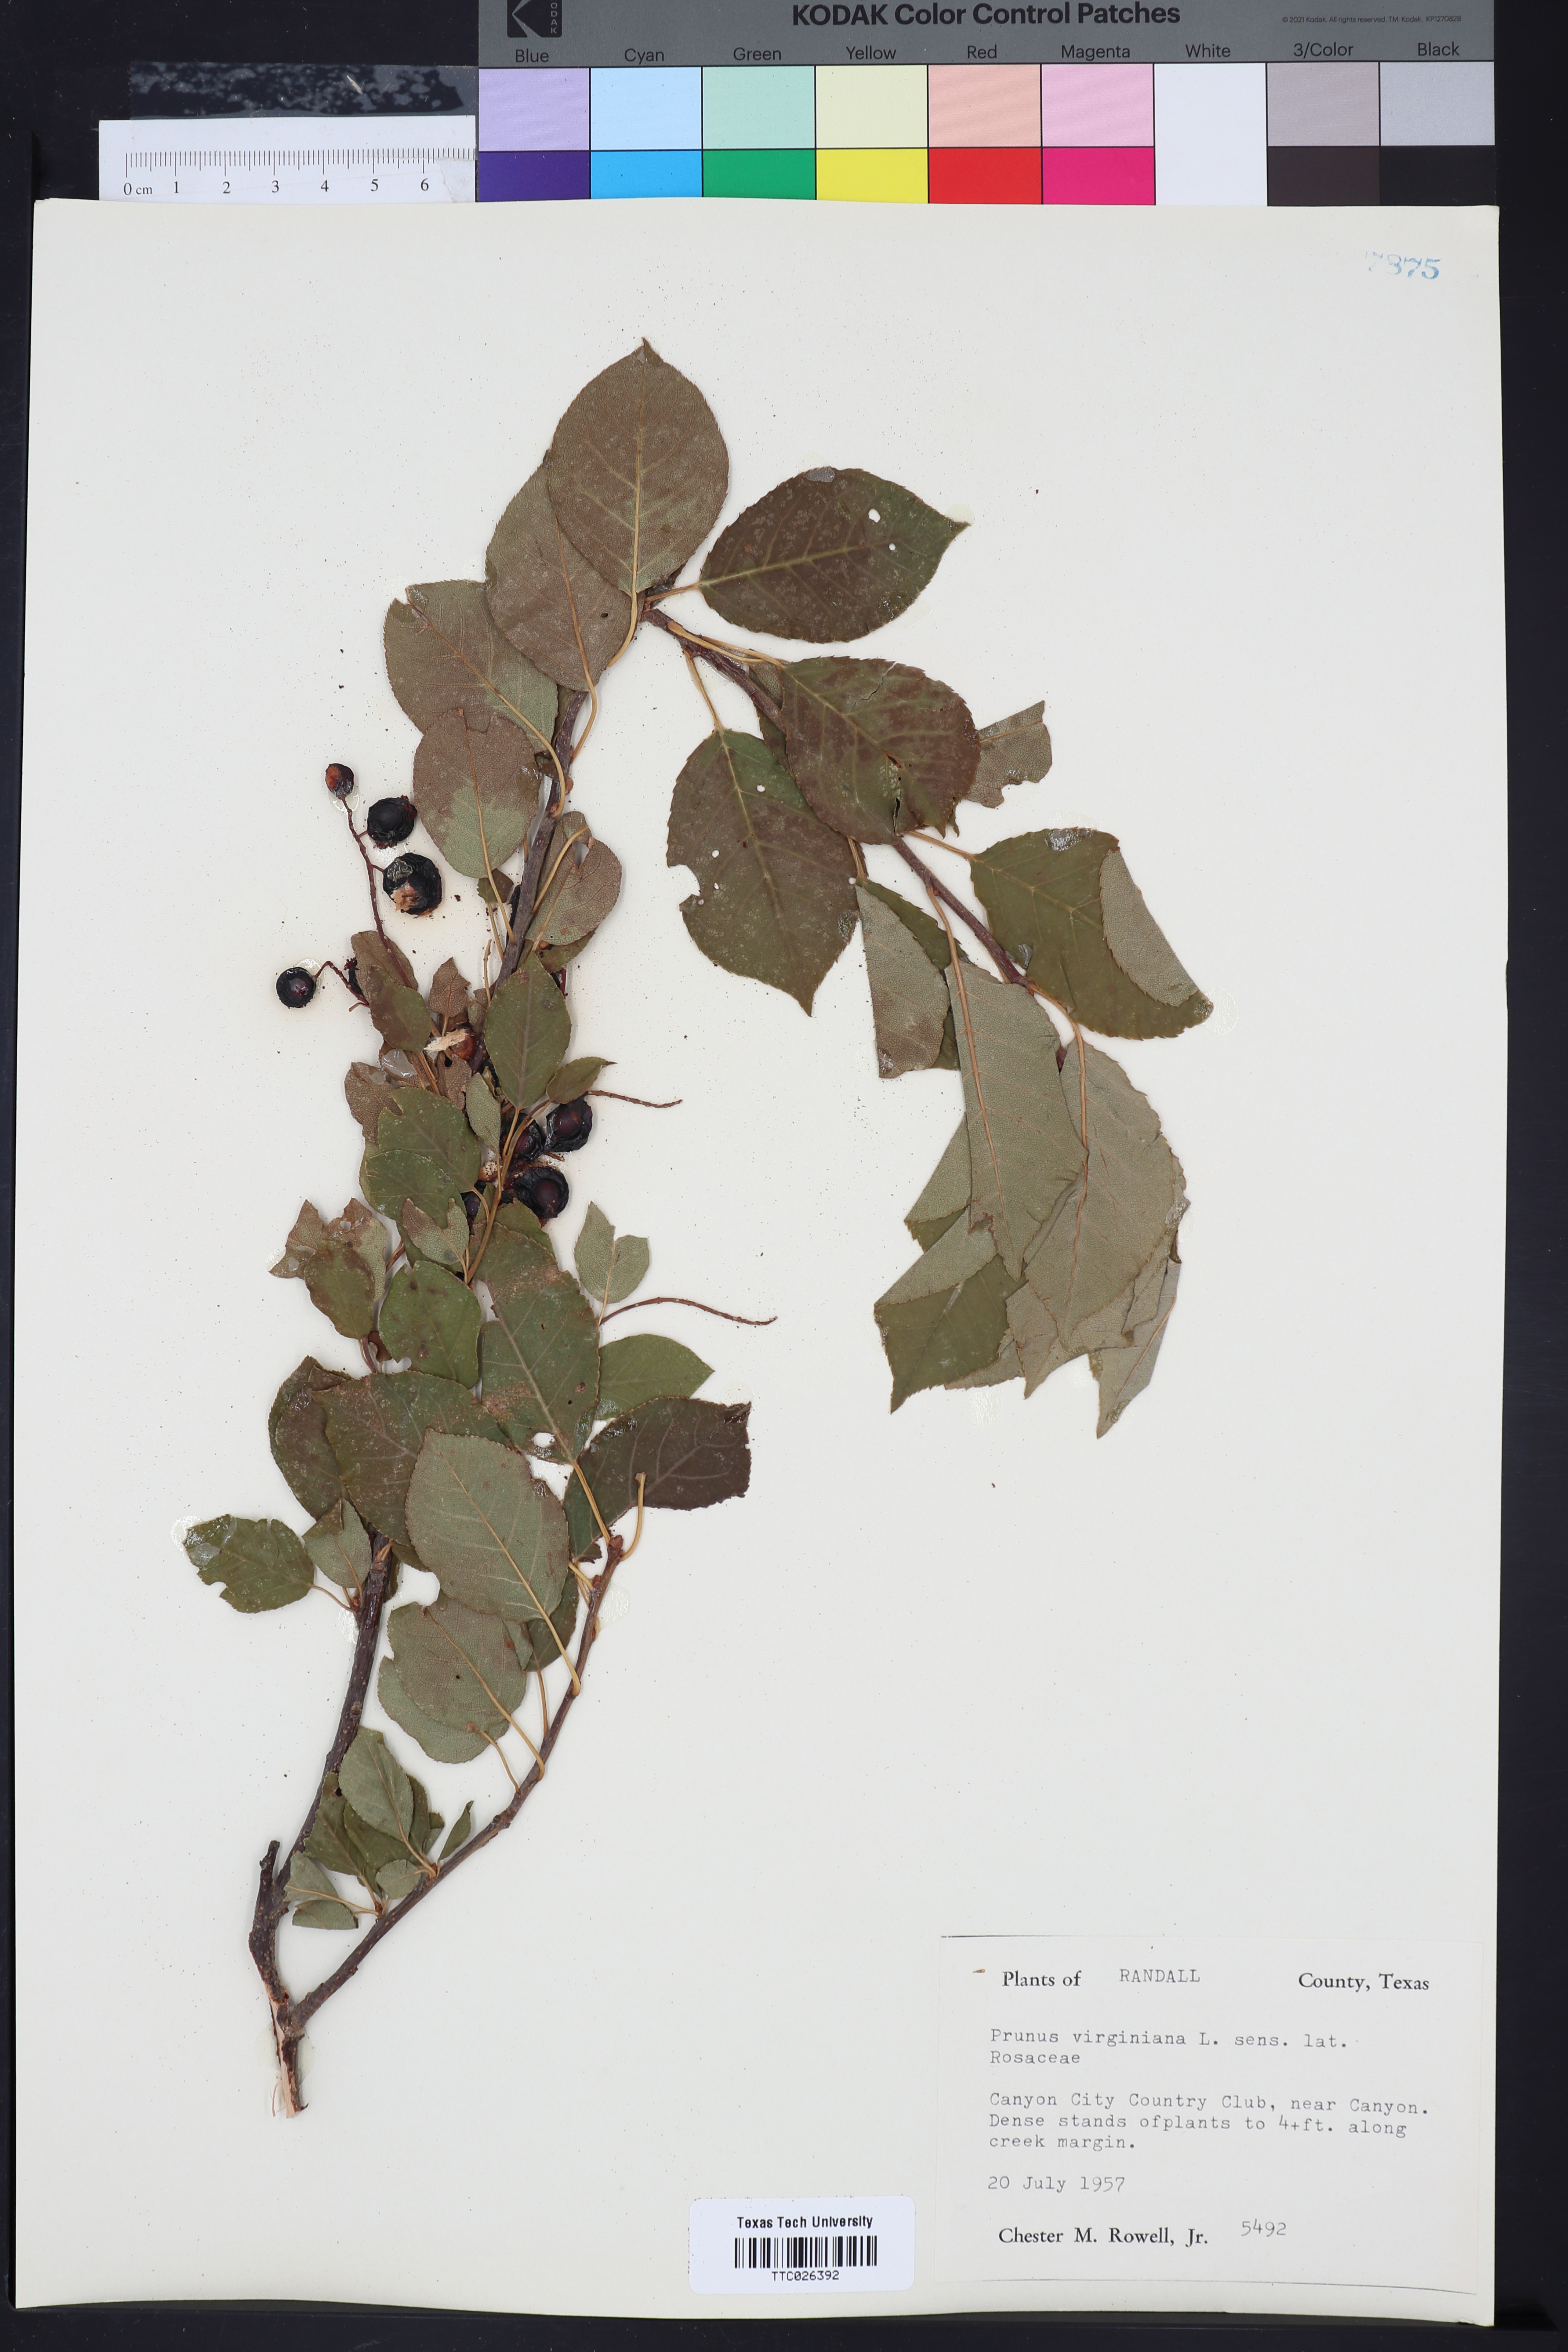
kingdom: Plantae
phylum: Tracheophyta
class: Magnoliopsida
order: Rosales
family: Rosaceae
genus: Prunus
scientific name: Prunus virginiana
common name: Chokecherry
